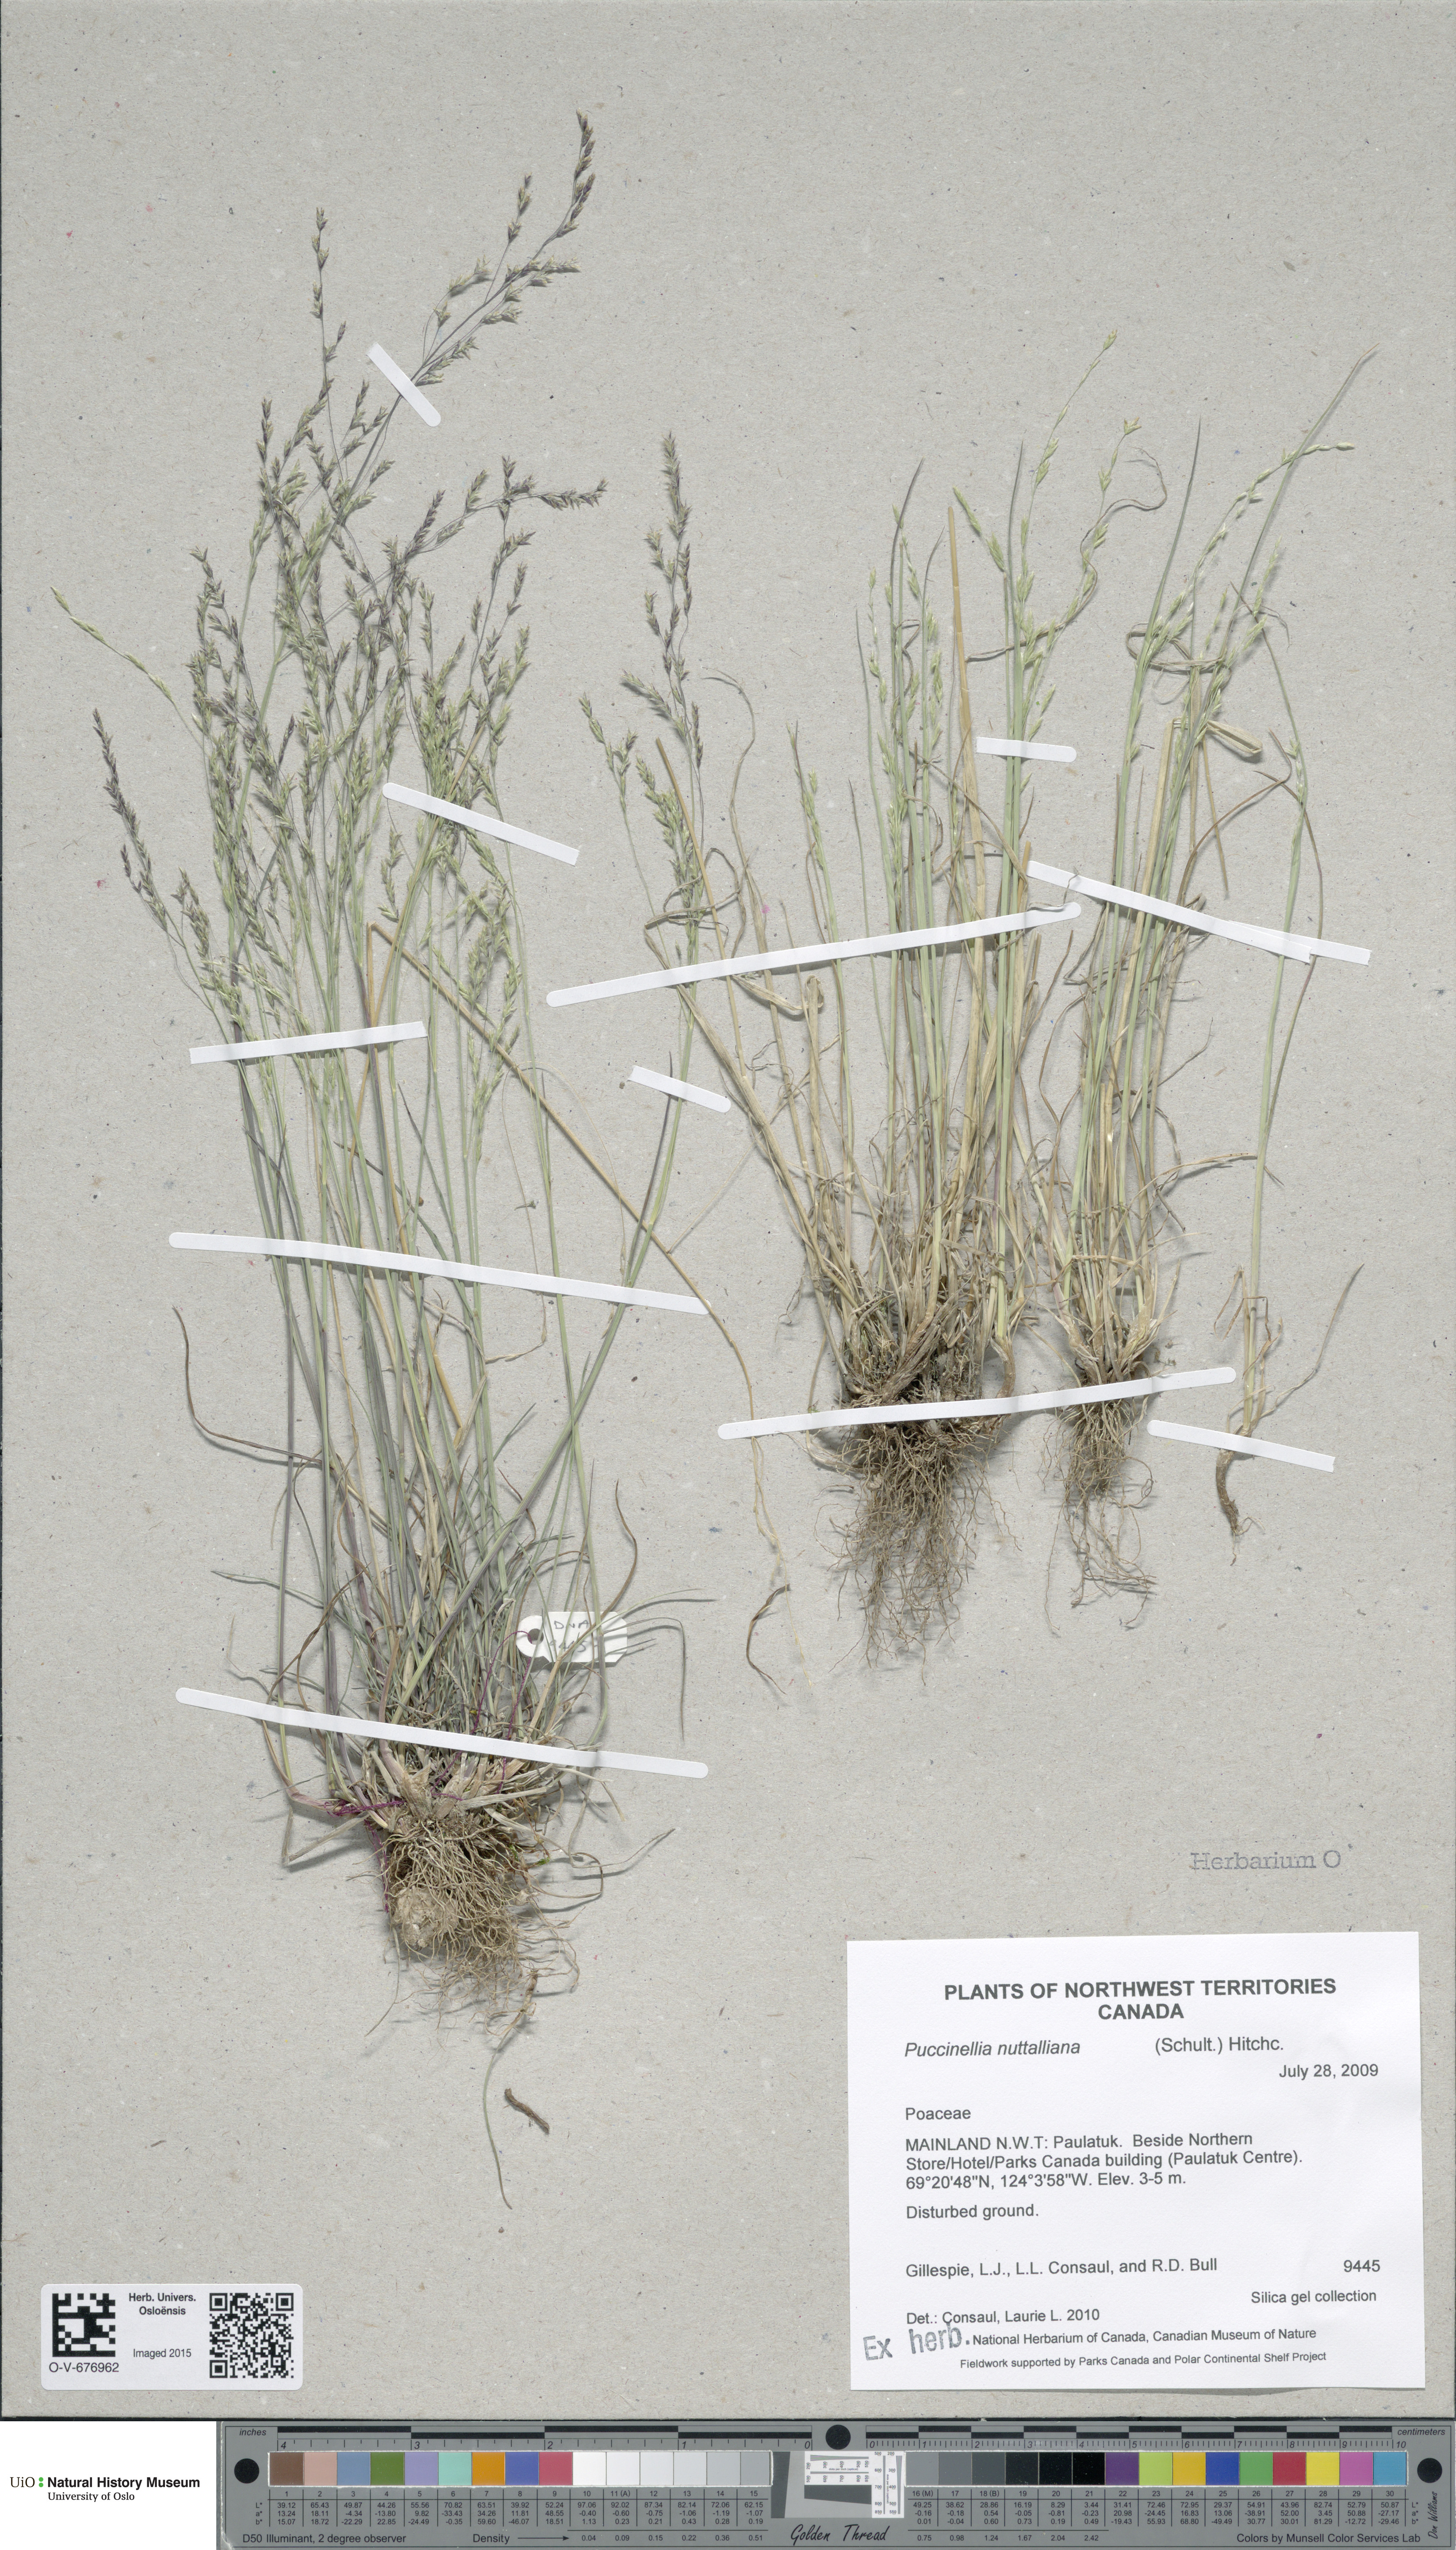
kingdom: Plantae
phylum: Tracheophyta
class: Liliopsida
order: Poales
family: Poaceae
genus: Puccinellia
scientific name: Puccinellia nuttalliana
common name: Nuttall's alkali grass
